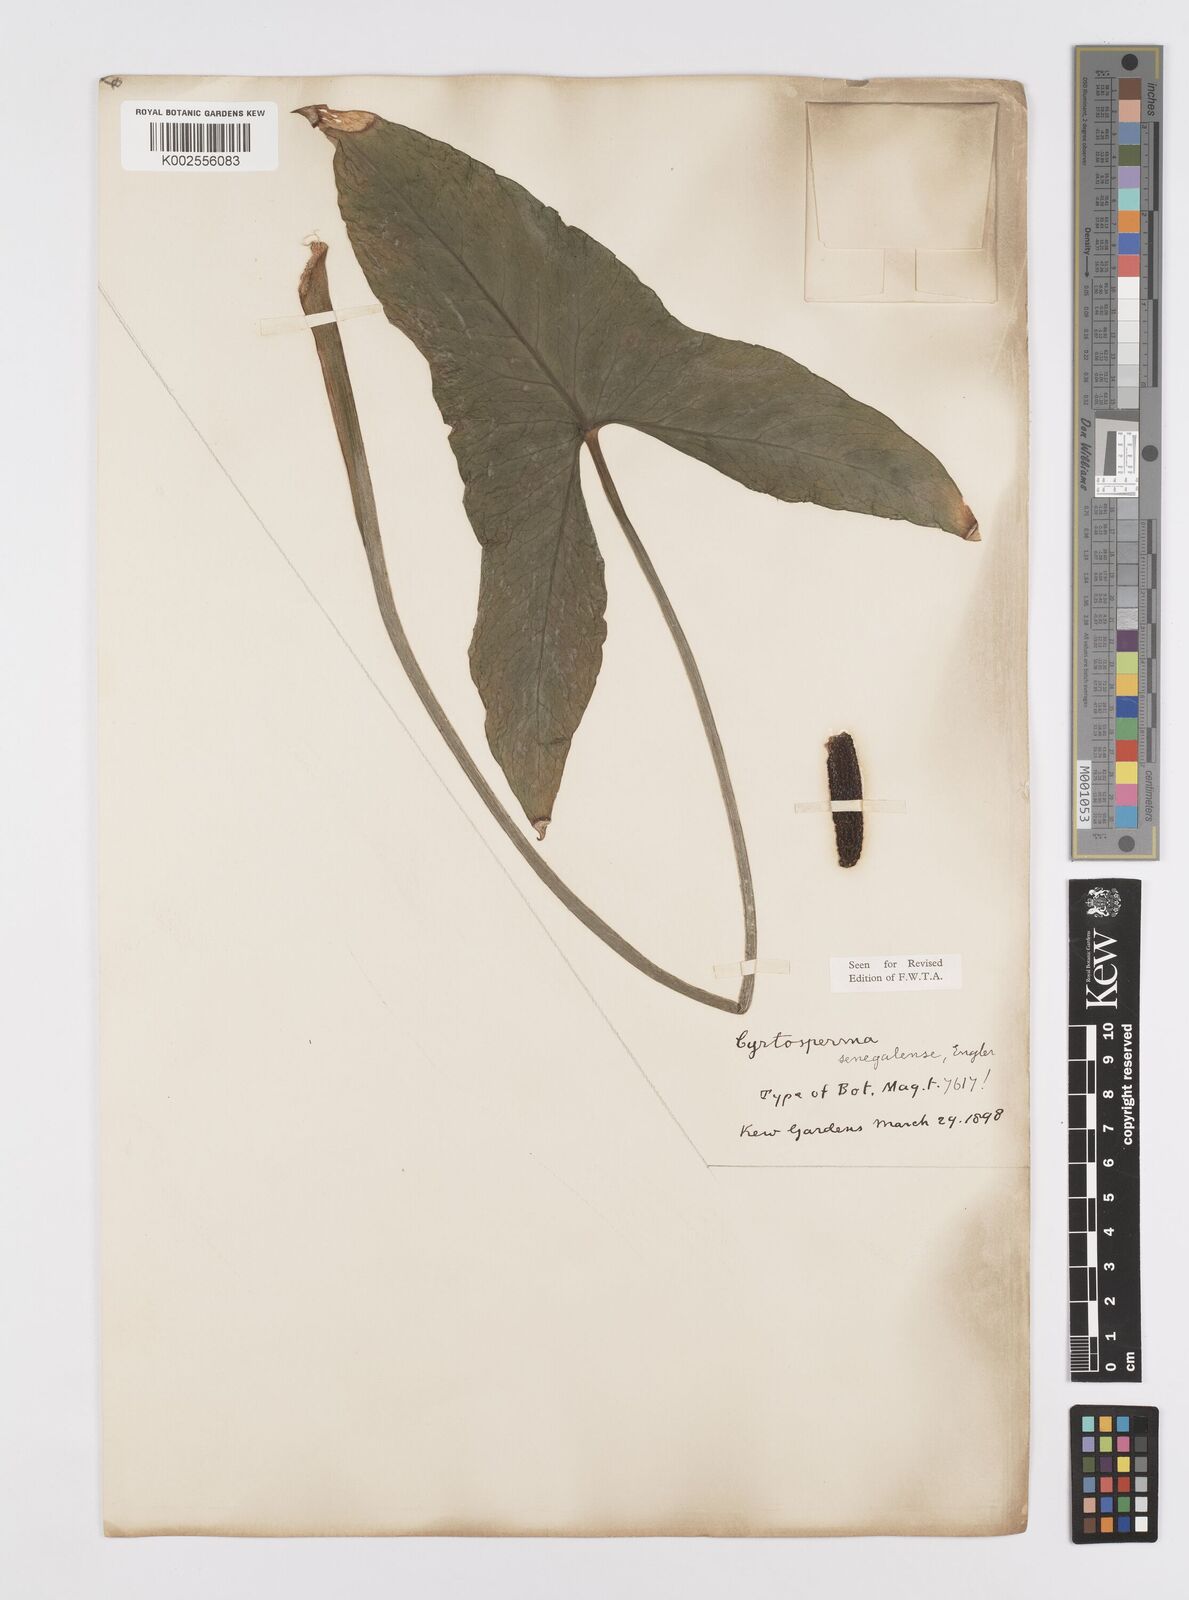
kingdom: Plantae
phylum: Tracheophyta
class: Liliopsida
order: Alismatales
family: Araceae
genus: Lasimorpha
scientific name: Lasimorpha senegalensis
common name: Swamp arum
